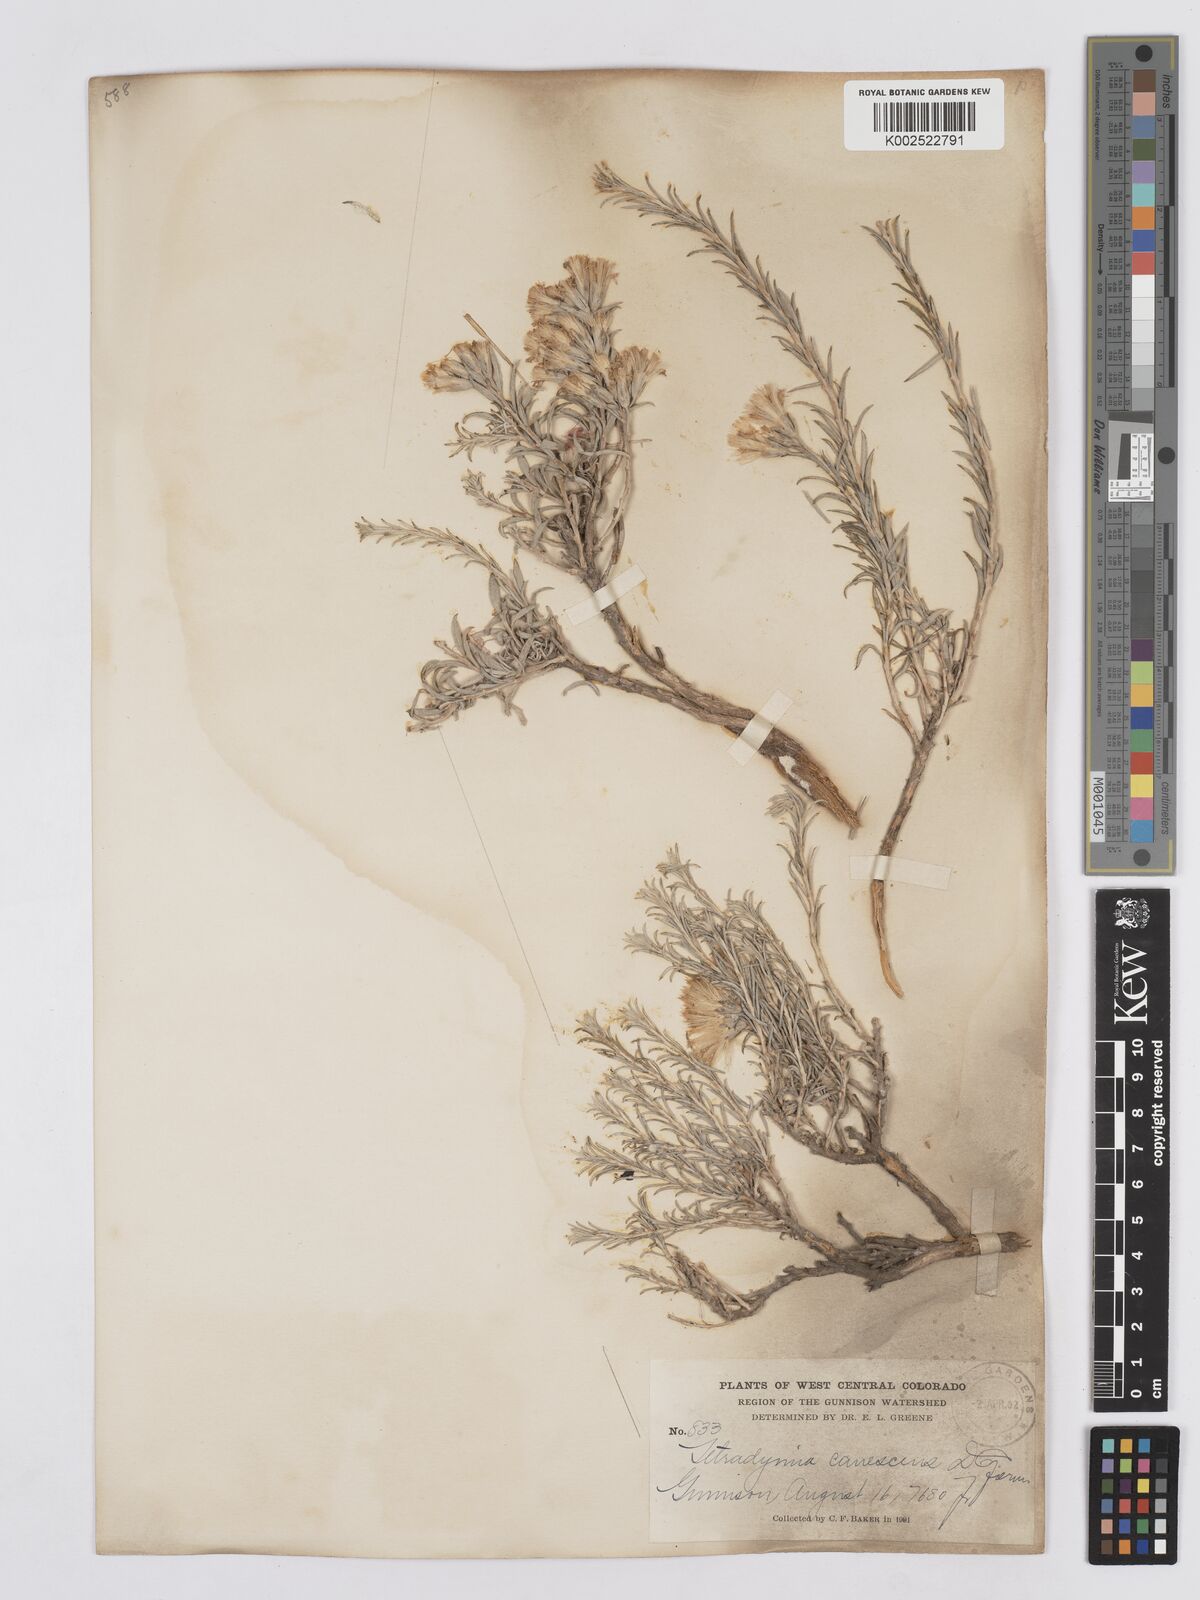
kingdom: Plantae
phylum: Tracheophyta
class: Magnoliopsida
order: Asterales
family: Asteraceae
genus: Tetradymia
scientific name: Tetradymia canescens
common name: Spineless horsebrush
